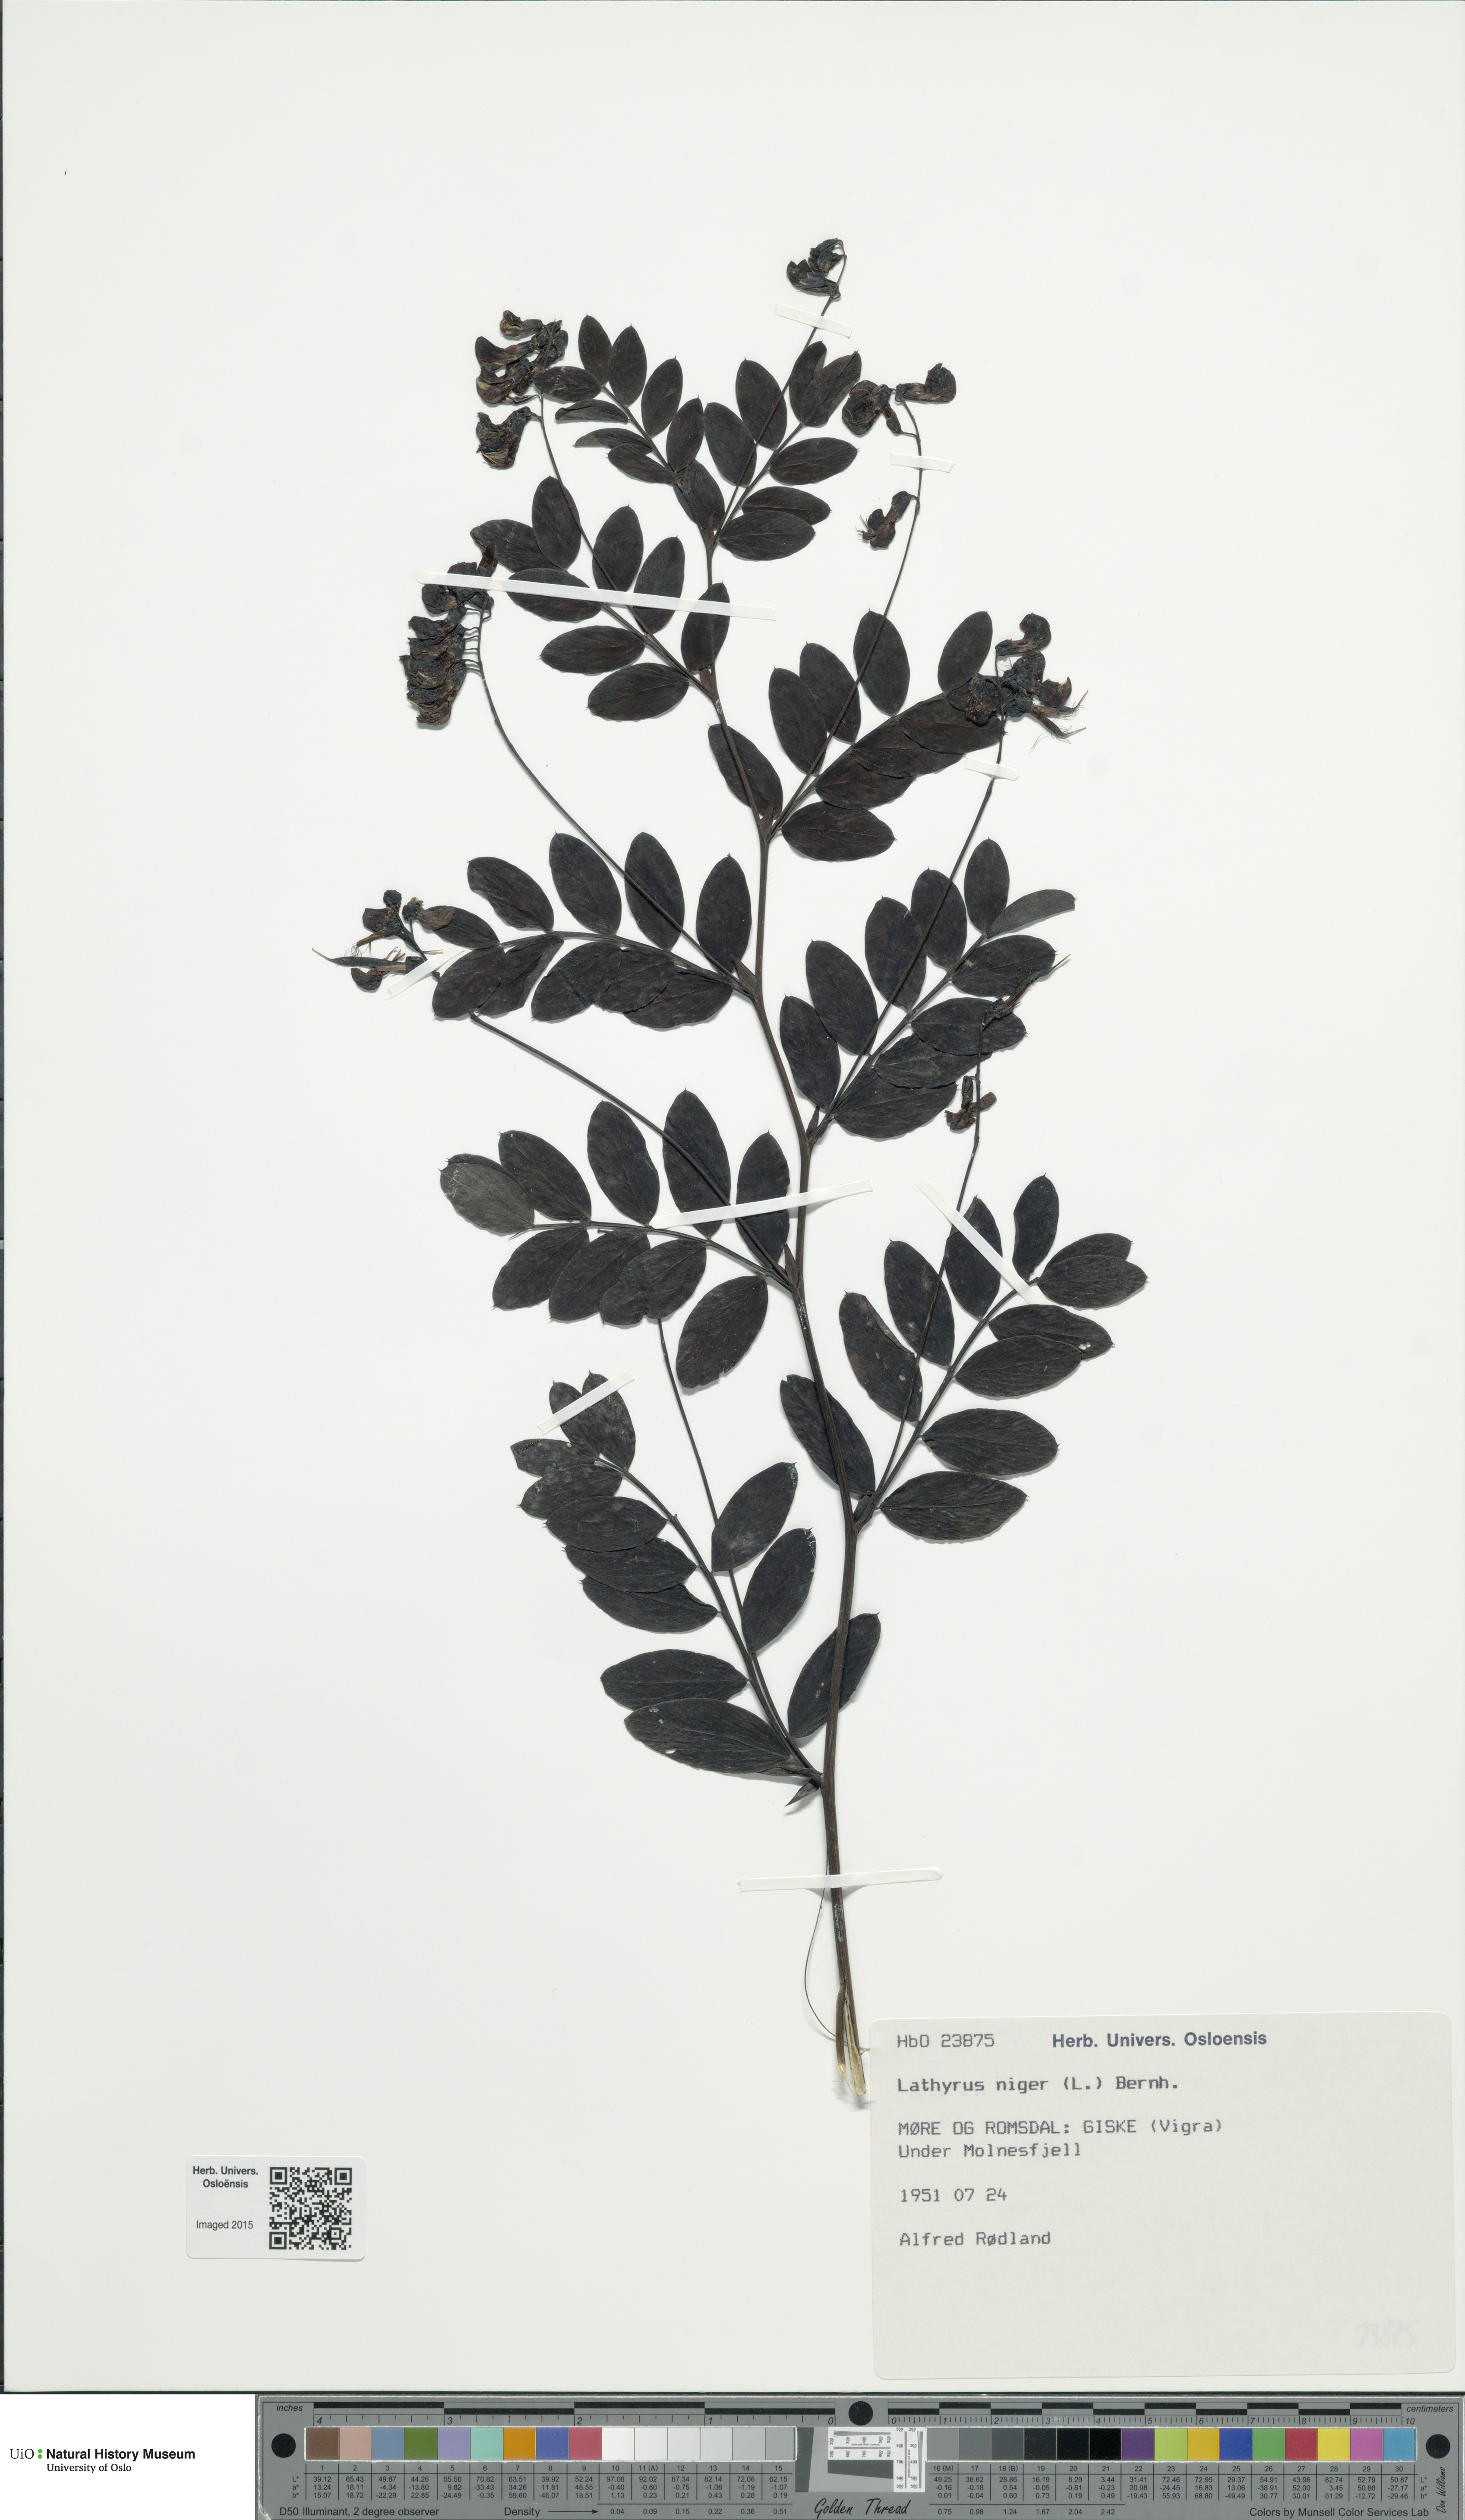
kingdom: Plantae
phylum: Tracheophyta
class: Magnoliopsida
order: Fabales
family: Fabaceae
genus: Lathyrus
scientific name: Lathyrus niger
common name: Black pea
